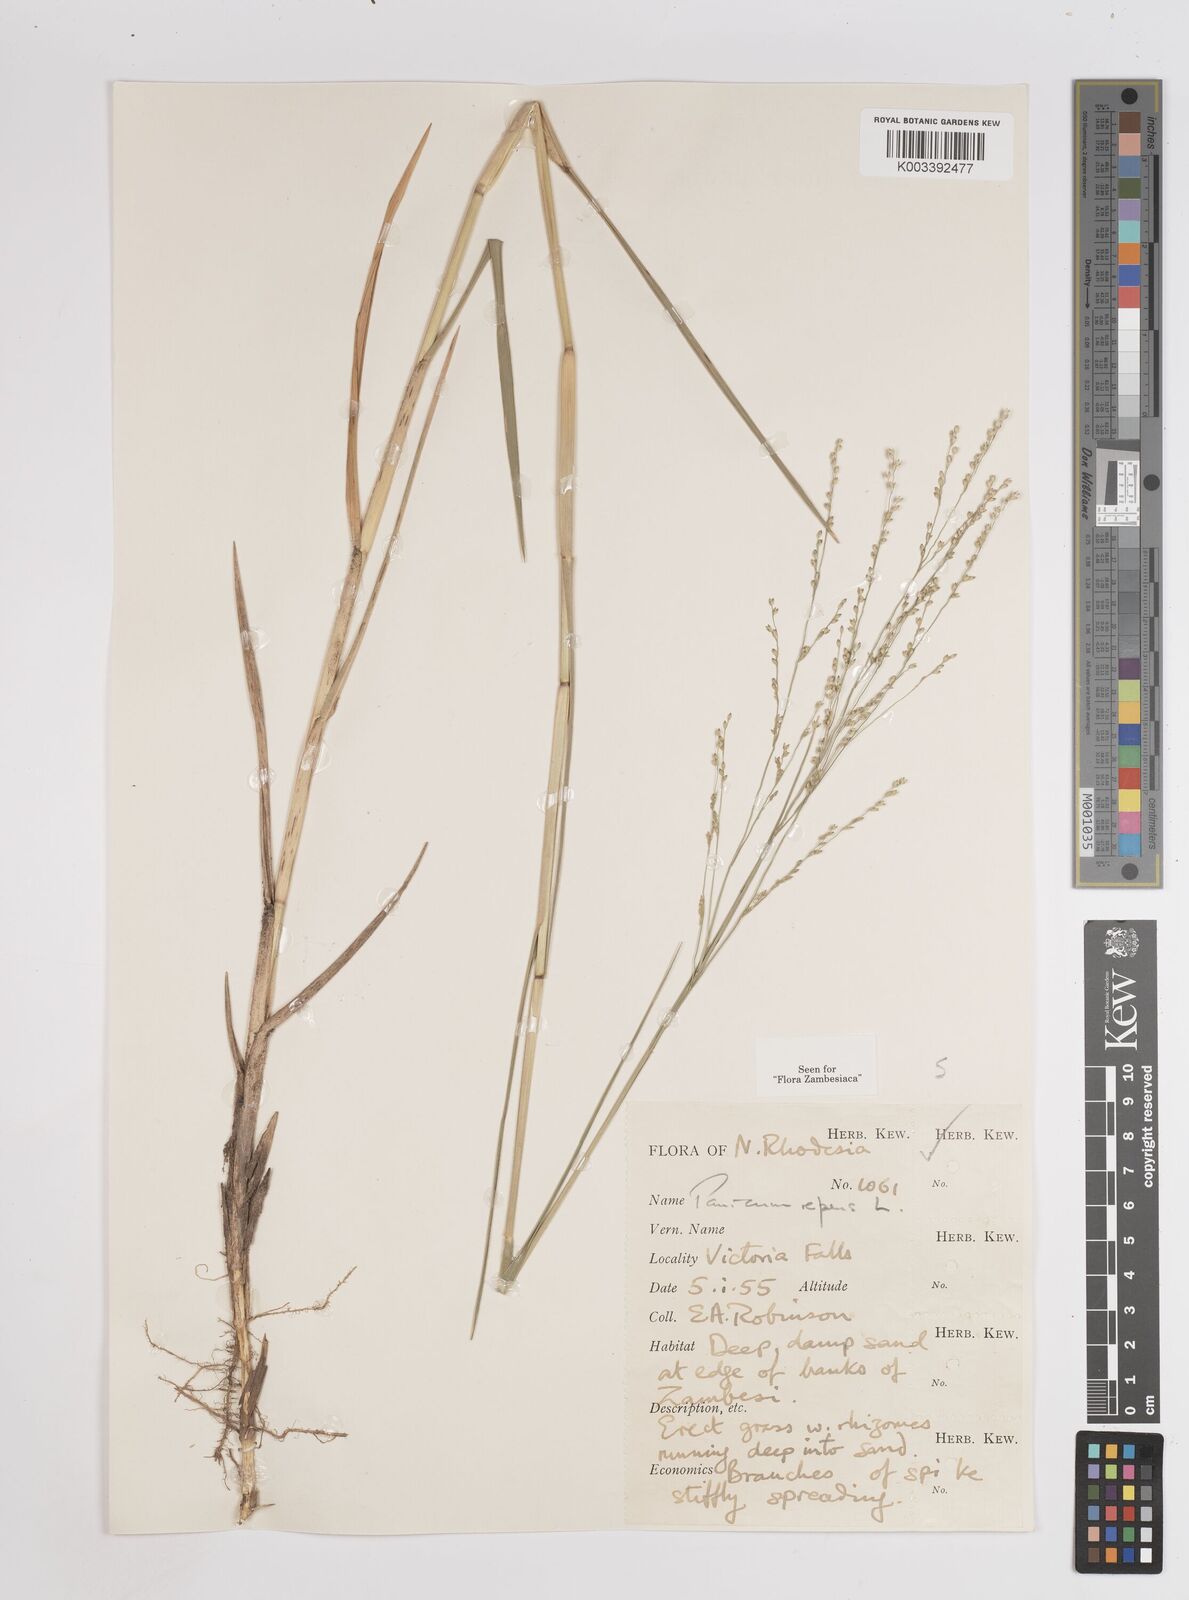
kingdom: Plantae
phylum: Tracheophyta
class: Liliopsida
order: Poales
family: Poaceae
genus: Panicum
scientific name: Panicum repens
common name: Torpedo grass
